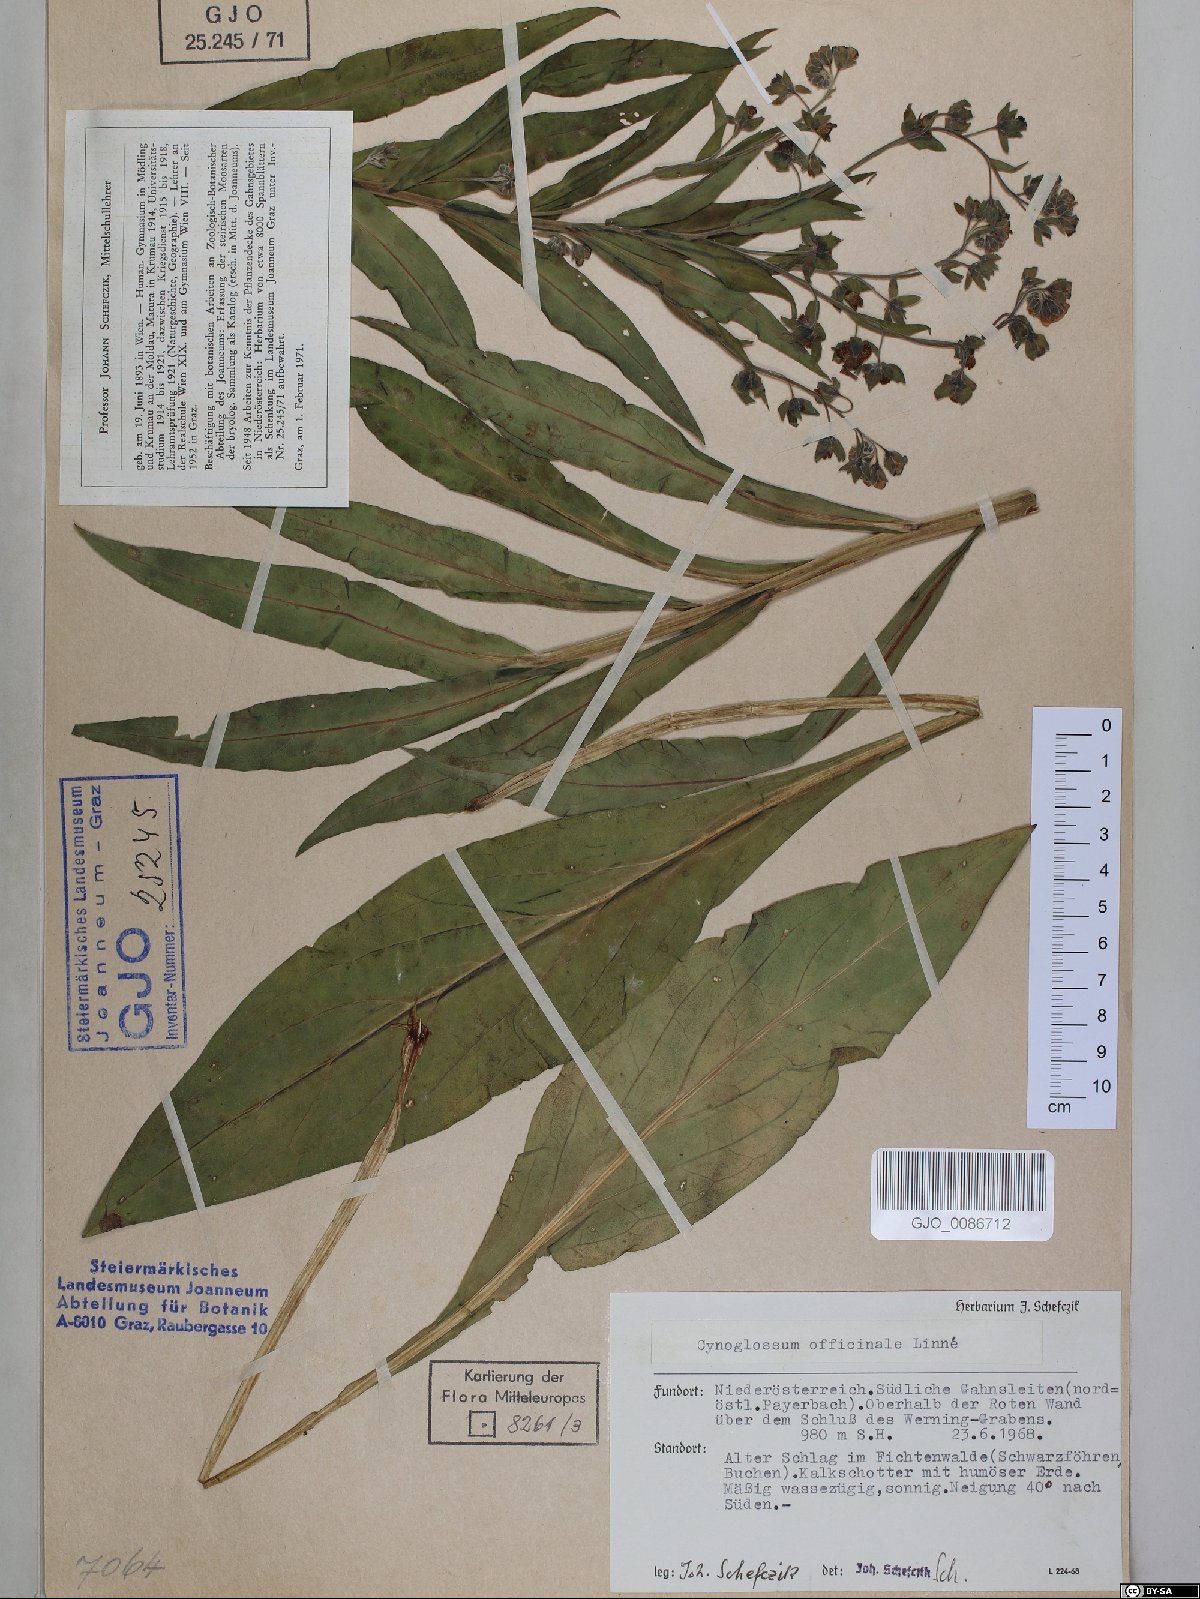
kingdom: Plantae
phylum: Tracheophyta
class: Magnoliopsida
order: Boraginales
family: Boraginaceae
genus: Cynoglossum
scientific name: Cynoglossum officinale
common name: Hound's-tongue
